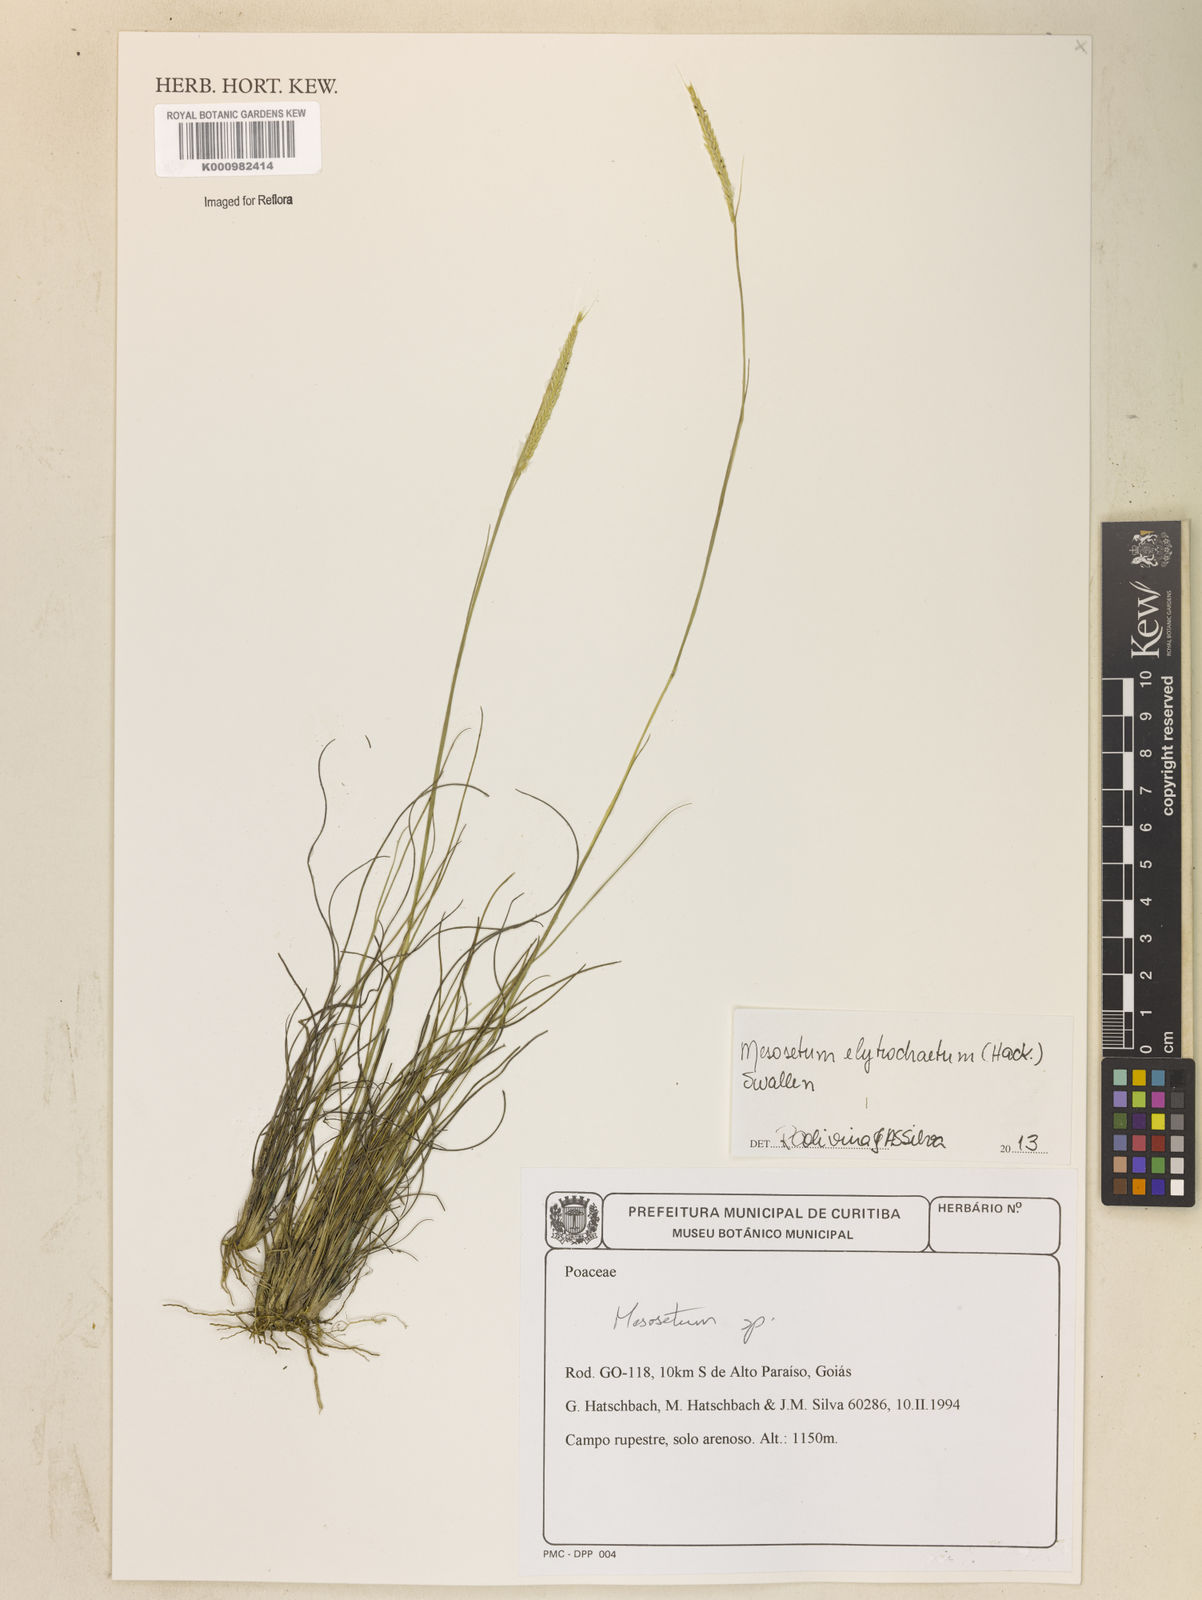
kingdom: Plantae
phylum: Tracheophyta
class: Liliopsida
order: Poales
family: Poaceae
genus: Mesosetum
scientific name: Mesosetum elytrochaetum
